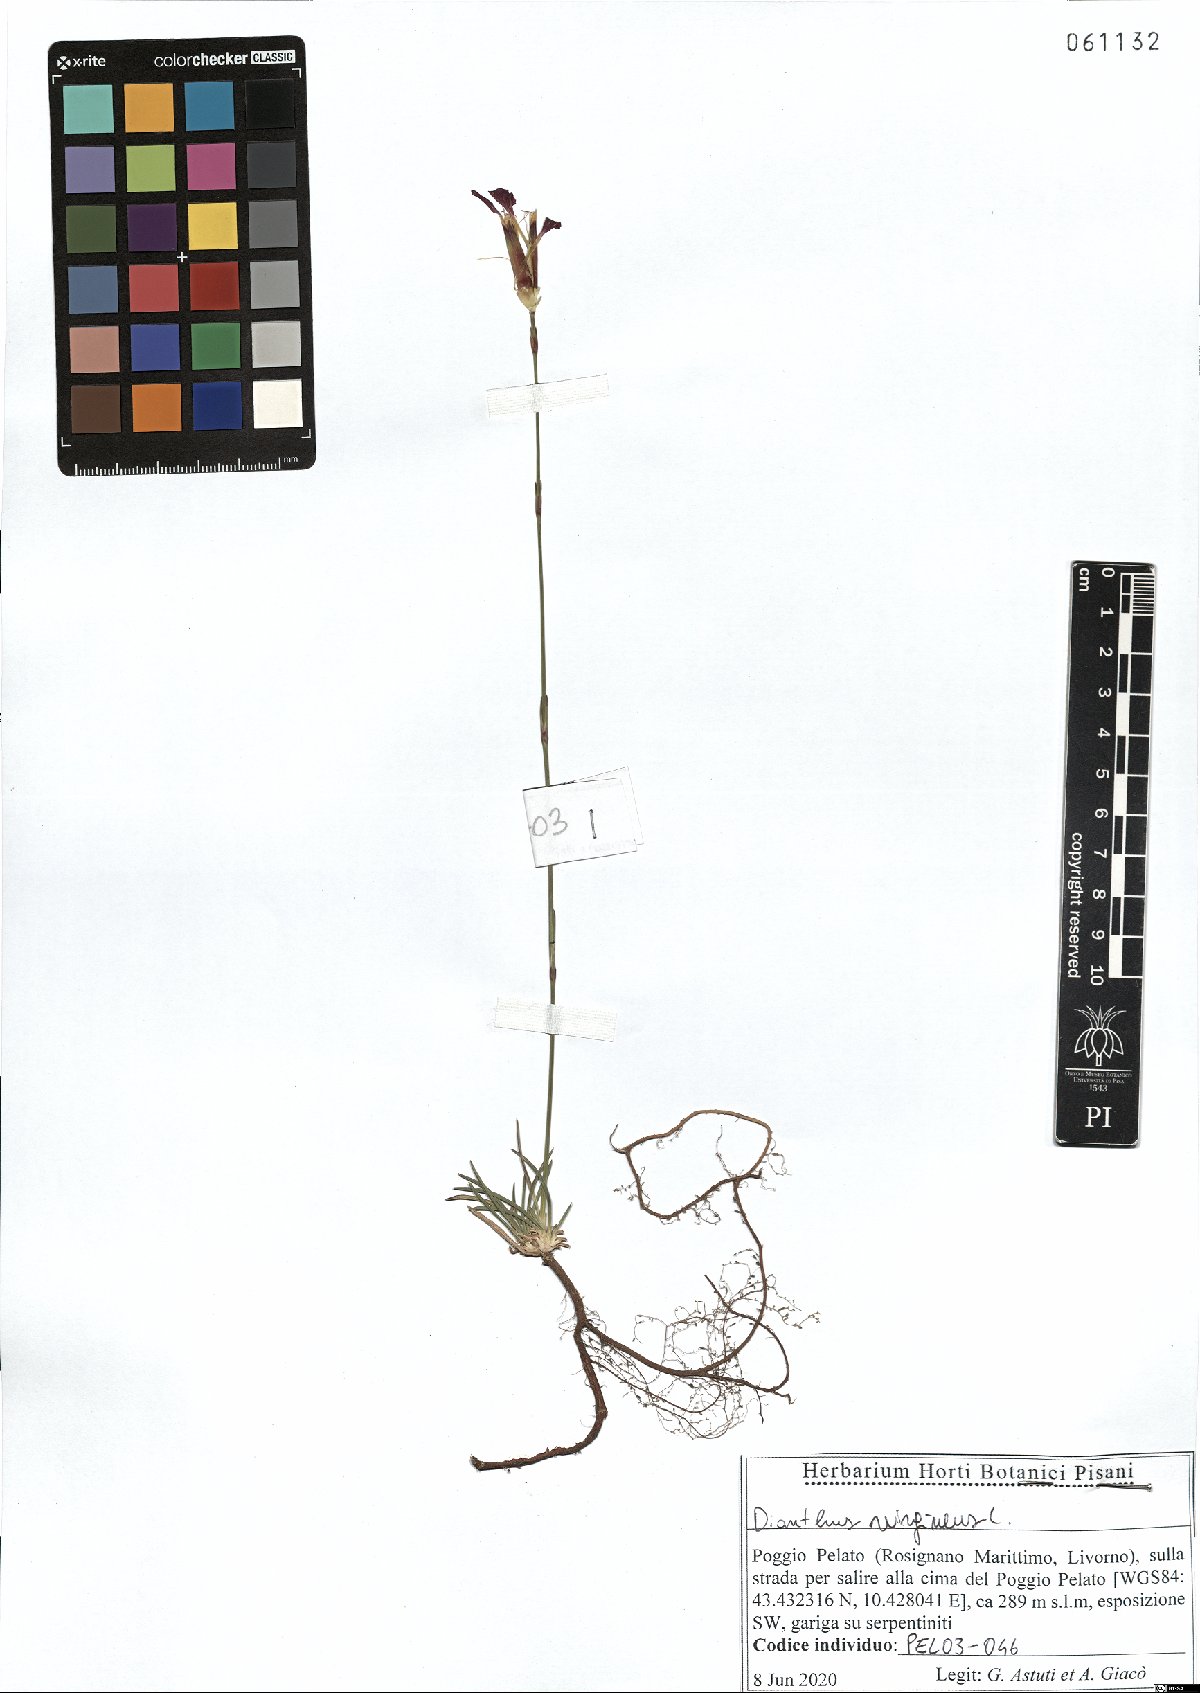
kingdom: Plantae
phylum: Tracheophyta
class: Magnoliopsida
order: Caryophyllales
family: Caryophyllaceae
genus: Dianthus
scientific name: Dianthus virgineus
